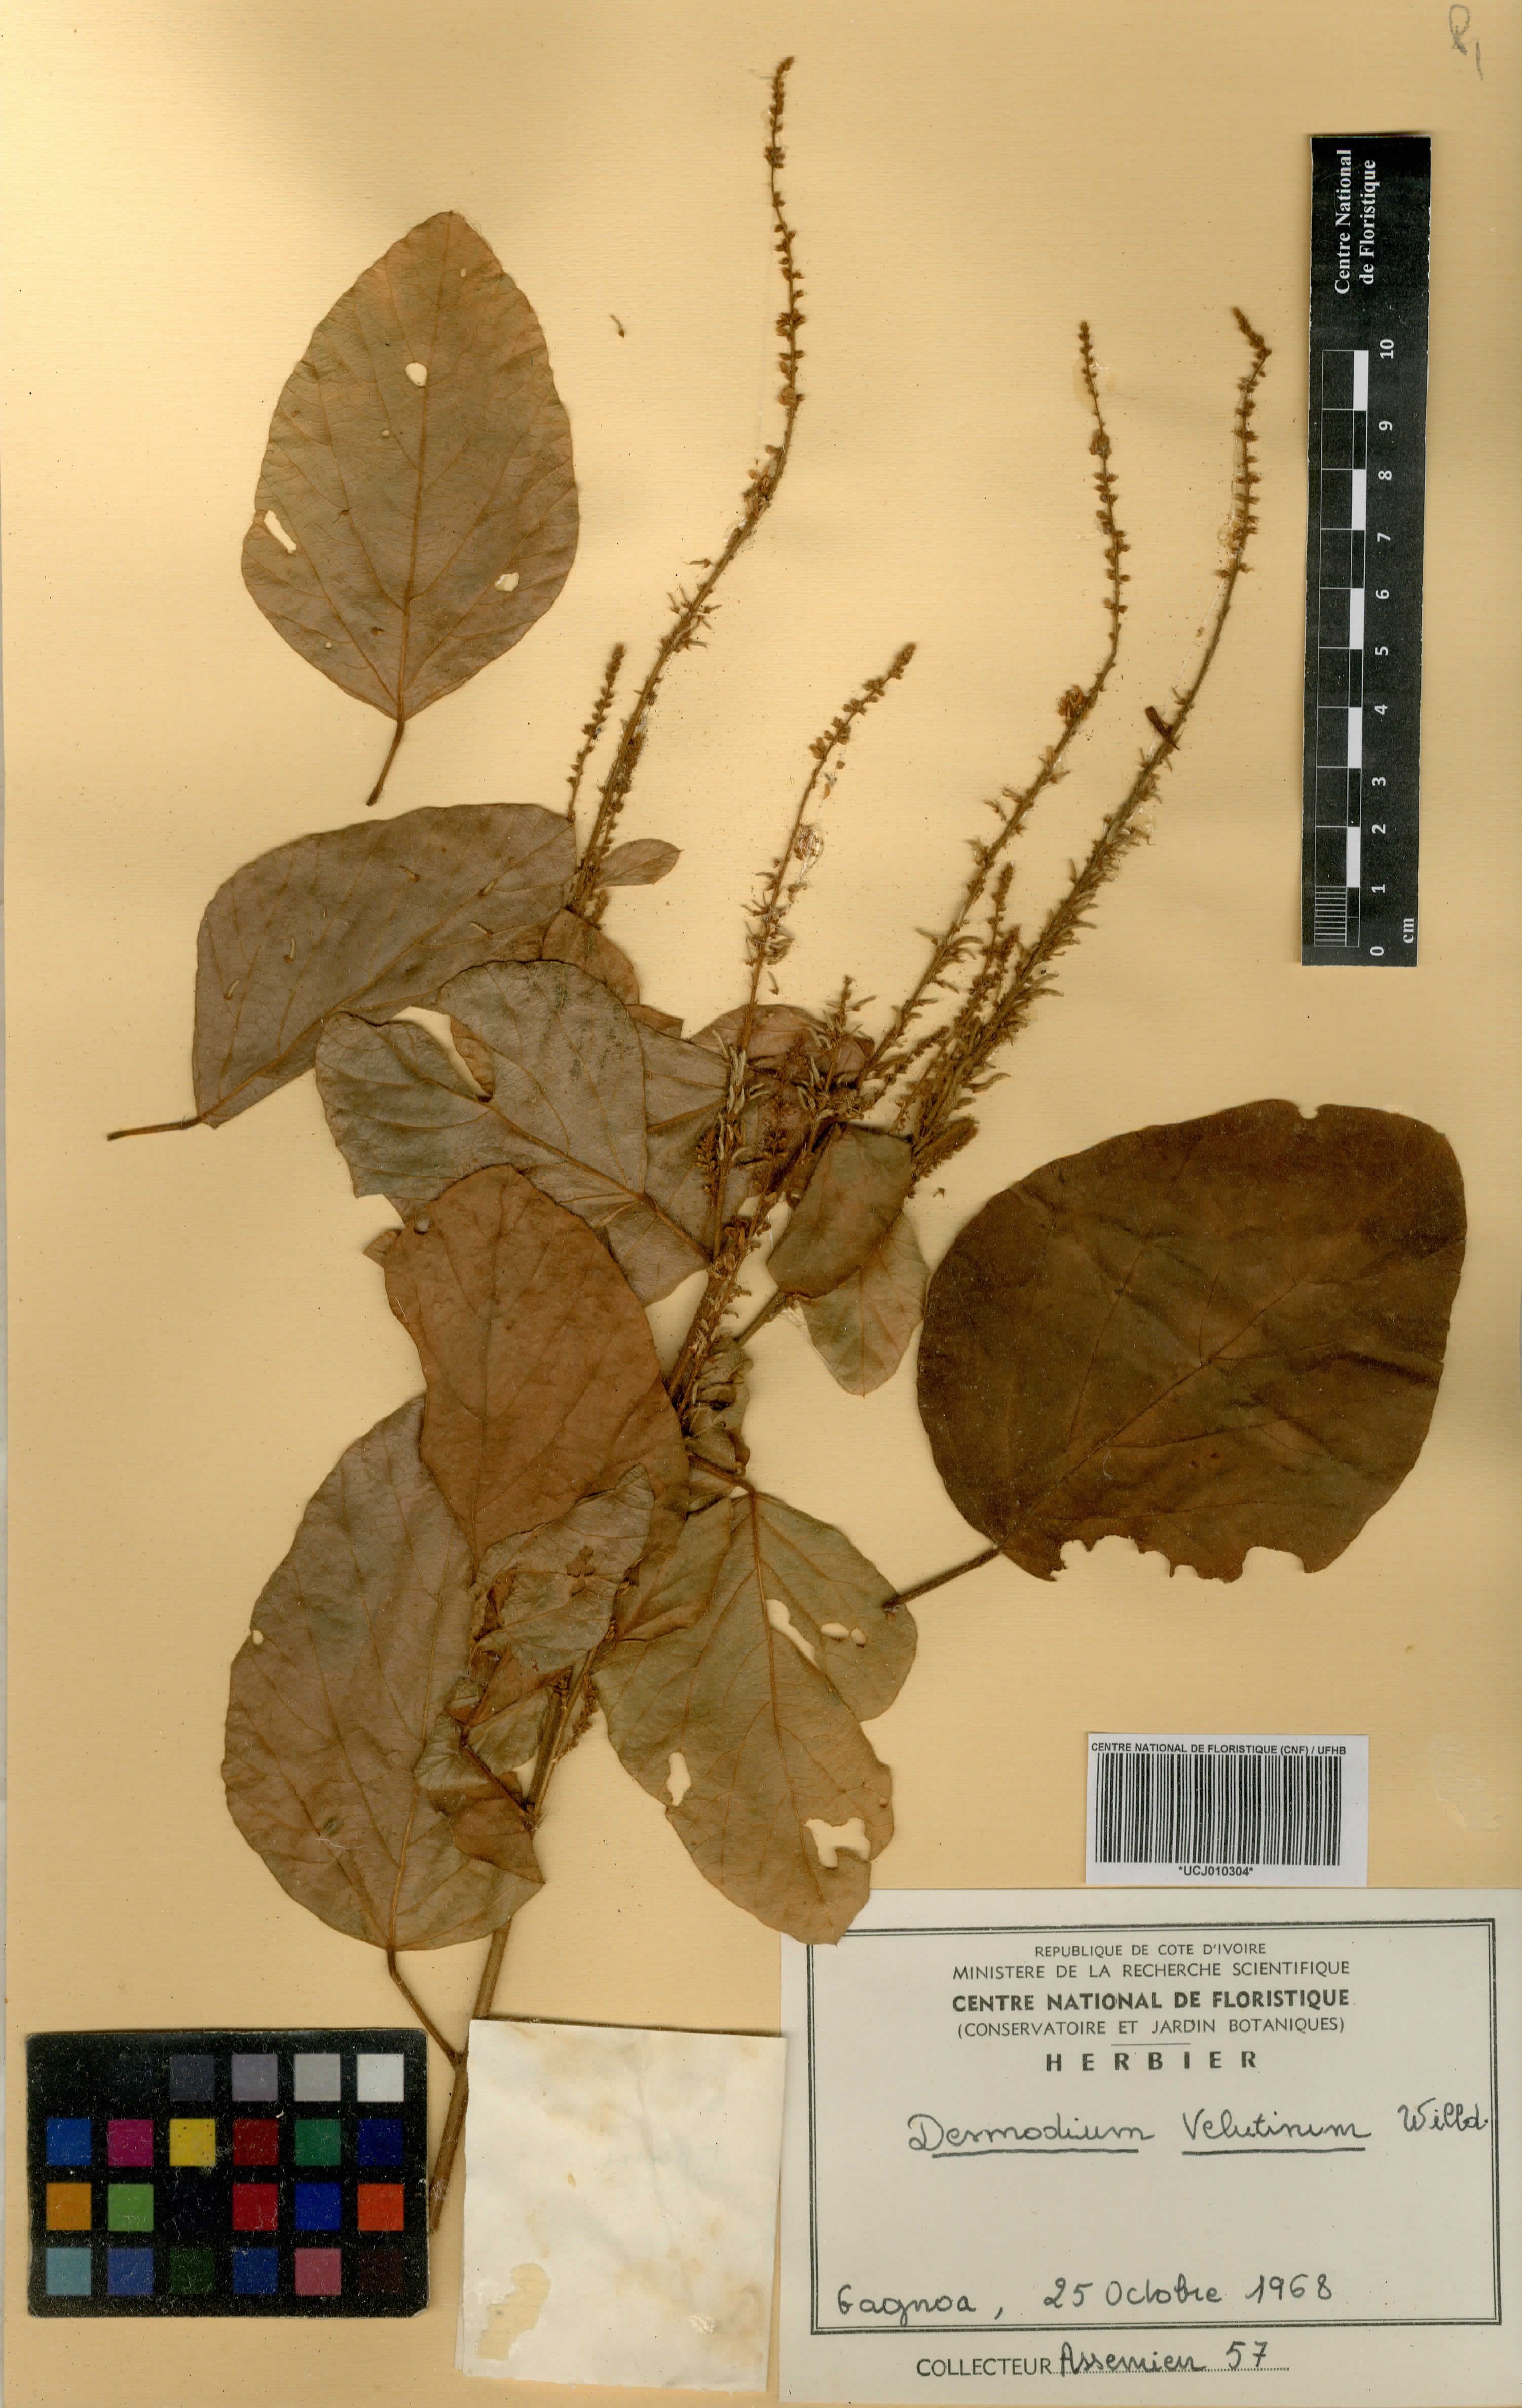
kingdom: Plantae
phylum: Tracheophyta
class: Magnoliopsida
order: Fabales
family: Fabaceae
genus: Polhillides
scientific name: Polhillides velutina
